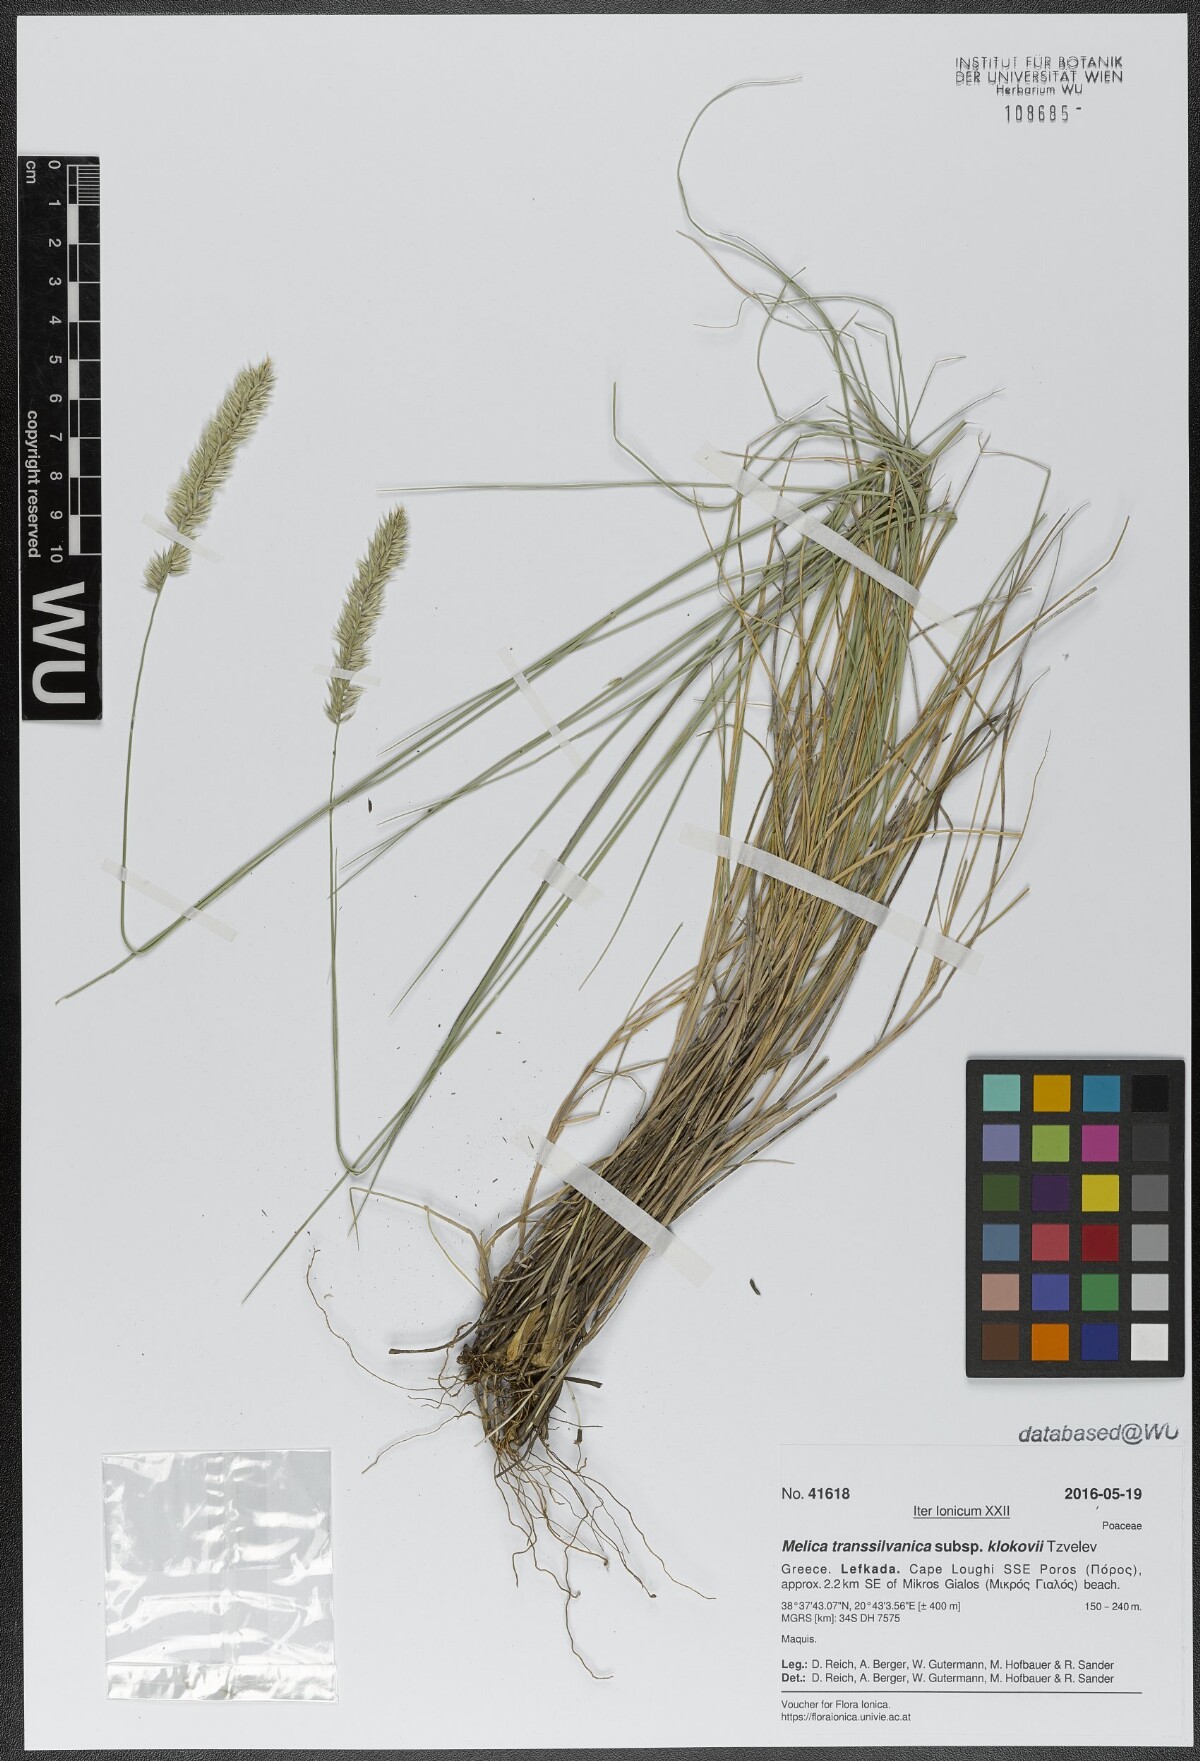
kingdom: Plantae
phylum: Tracheophyta
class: Liliopsida
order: Poales
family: Poaceae
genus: Melica
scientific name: Melica transsilvanica
